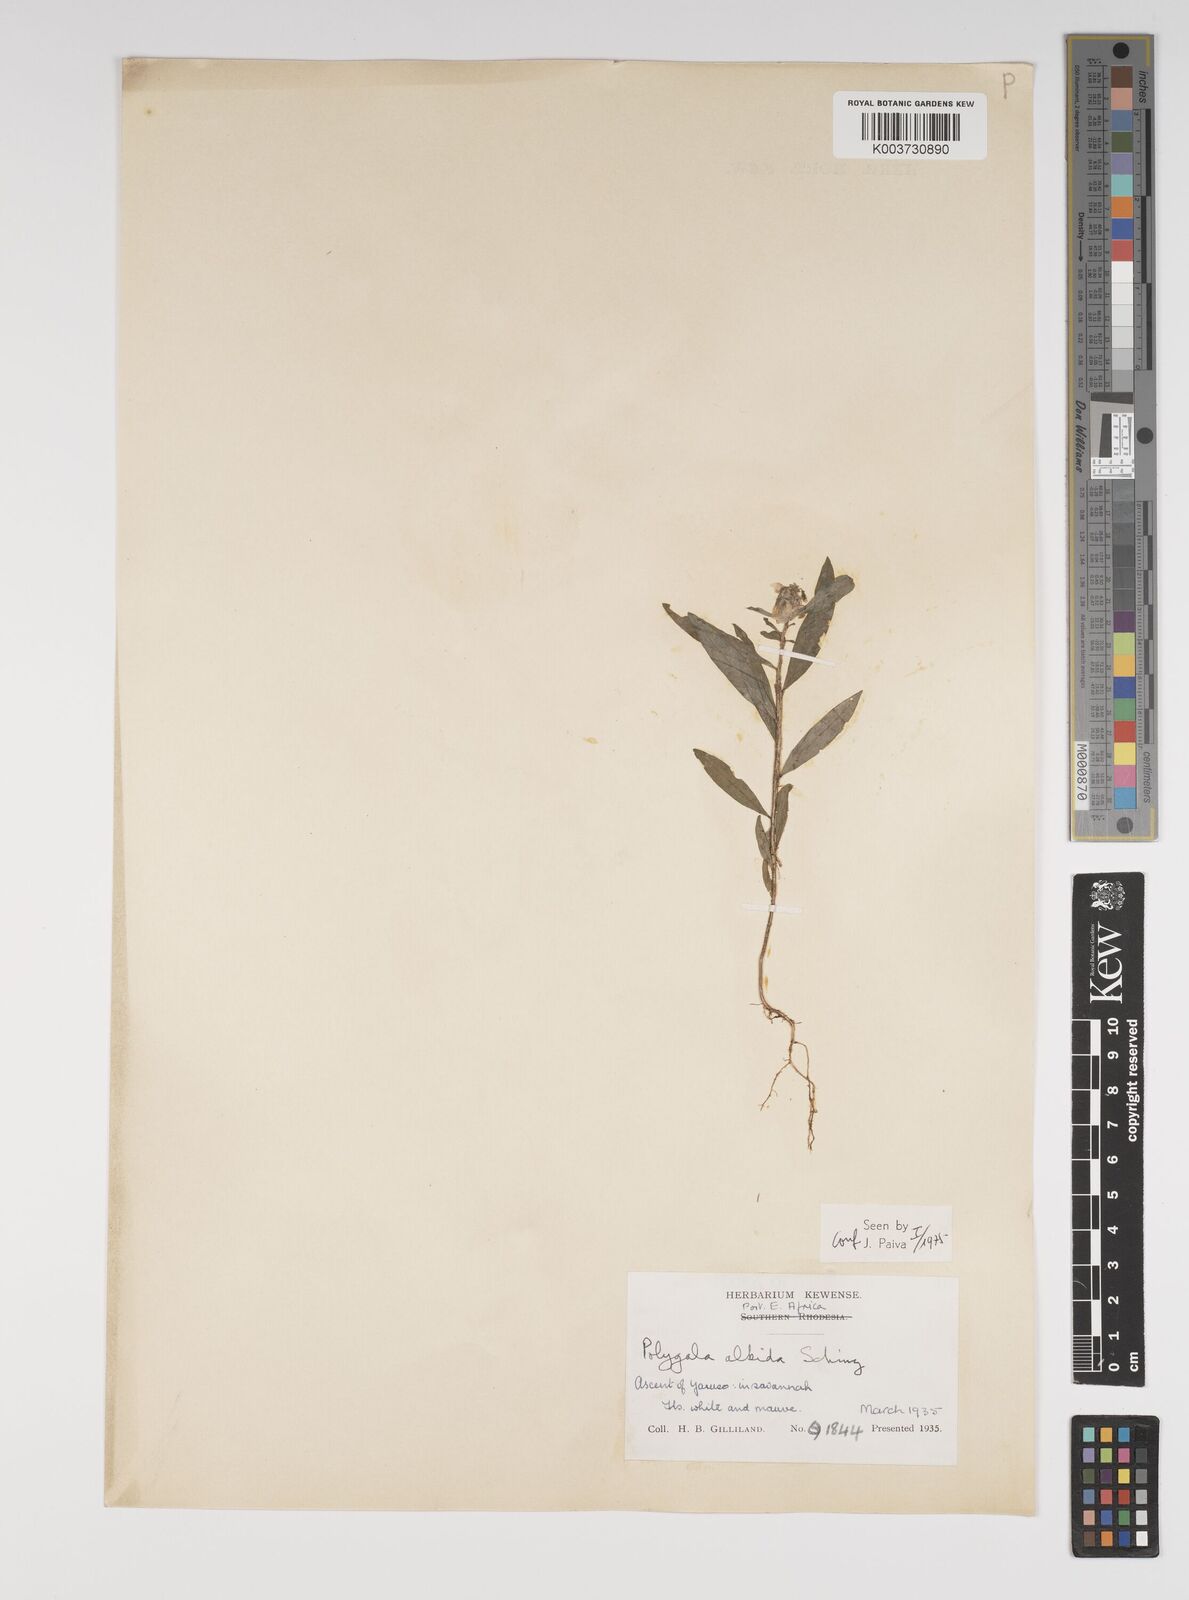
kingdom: Plantae
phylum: Tracheophyta
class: Magnoliopsida
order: Fabales
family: Polygalaceae
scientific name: Polygalaceae
